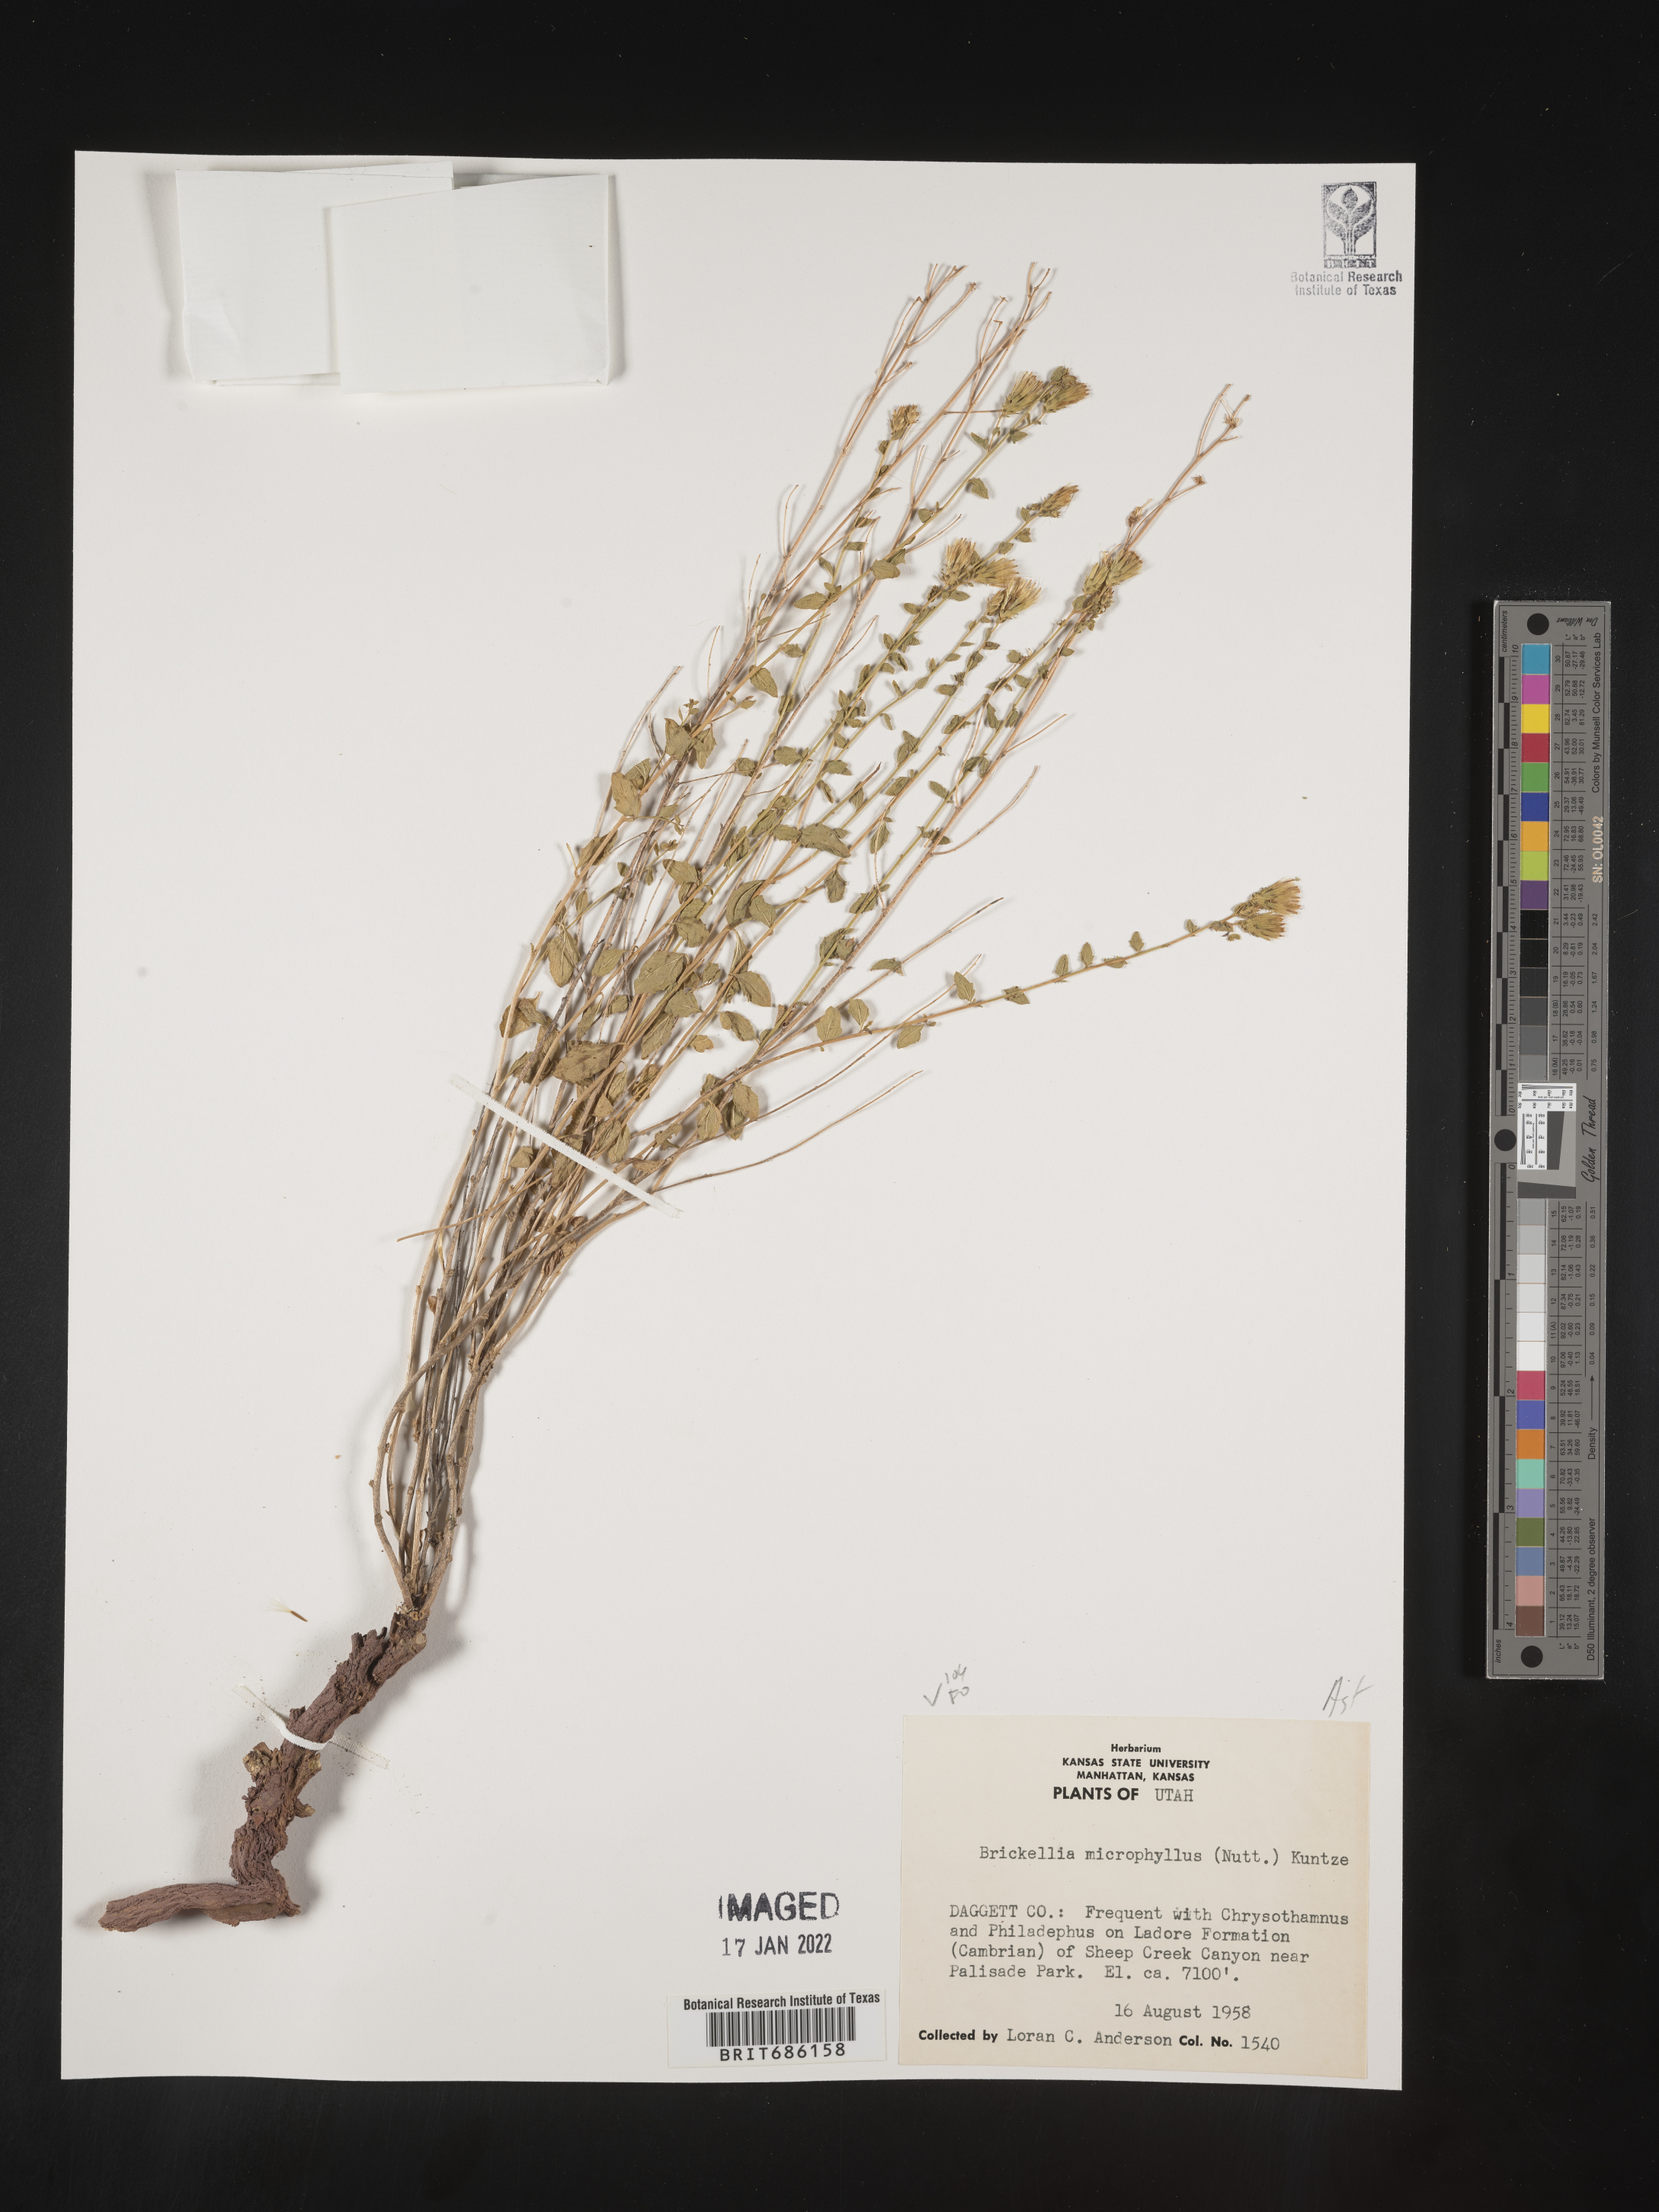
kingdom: Plantae
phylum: Tracheophyta
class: Magnoliopsida
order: Asterales
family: Asteraceae
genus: Brickellia
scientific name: Brickellia microphylla
